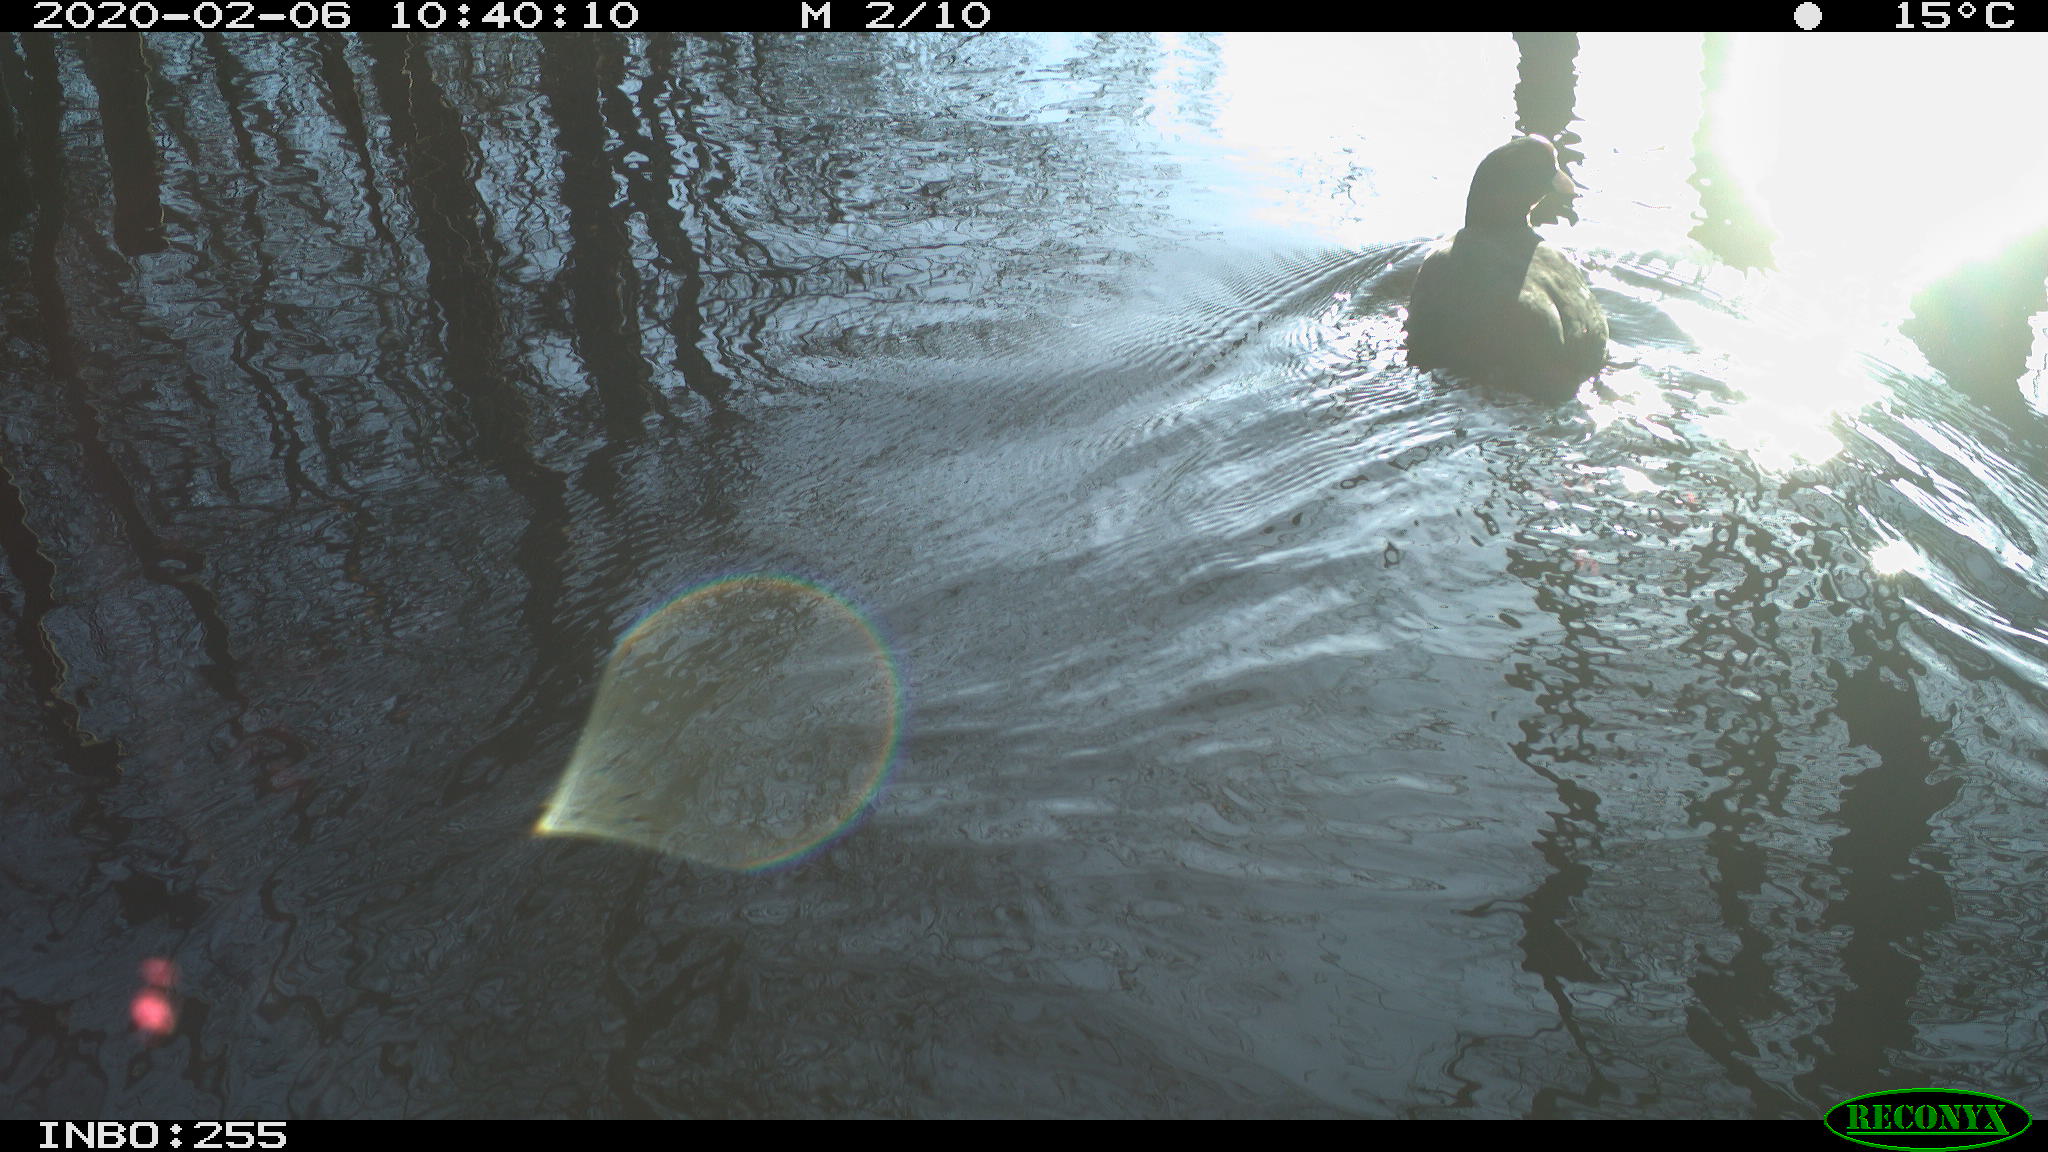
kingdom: Animalia
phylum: Chordata
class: Aves
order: Gruiformes
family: Rallidae
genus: Fulica
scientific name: Fulica atra
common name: Eurasian coot
